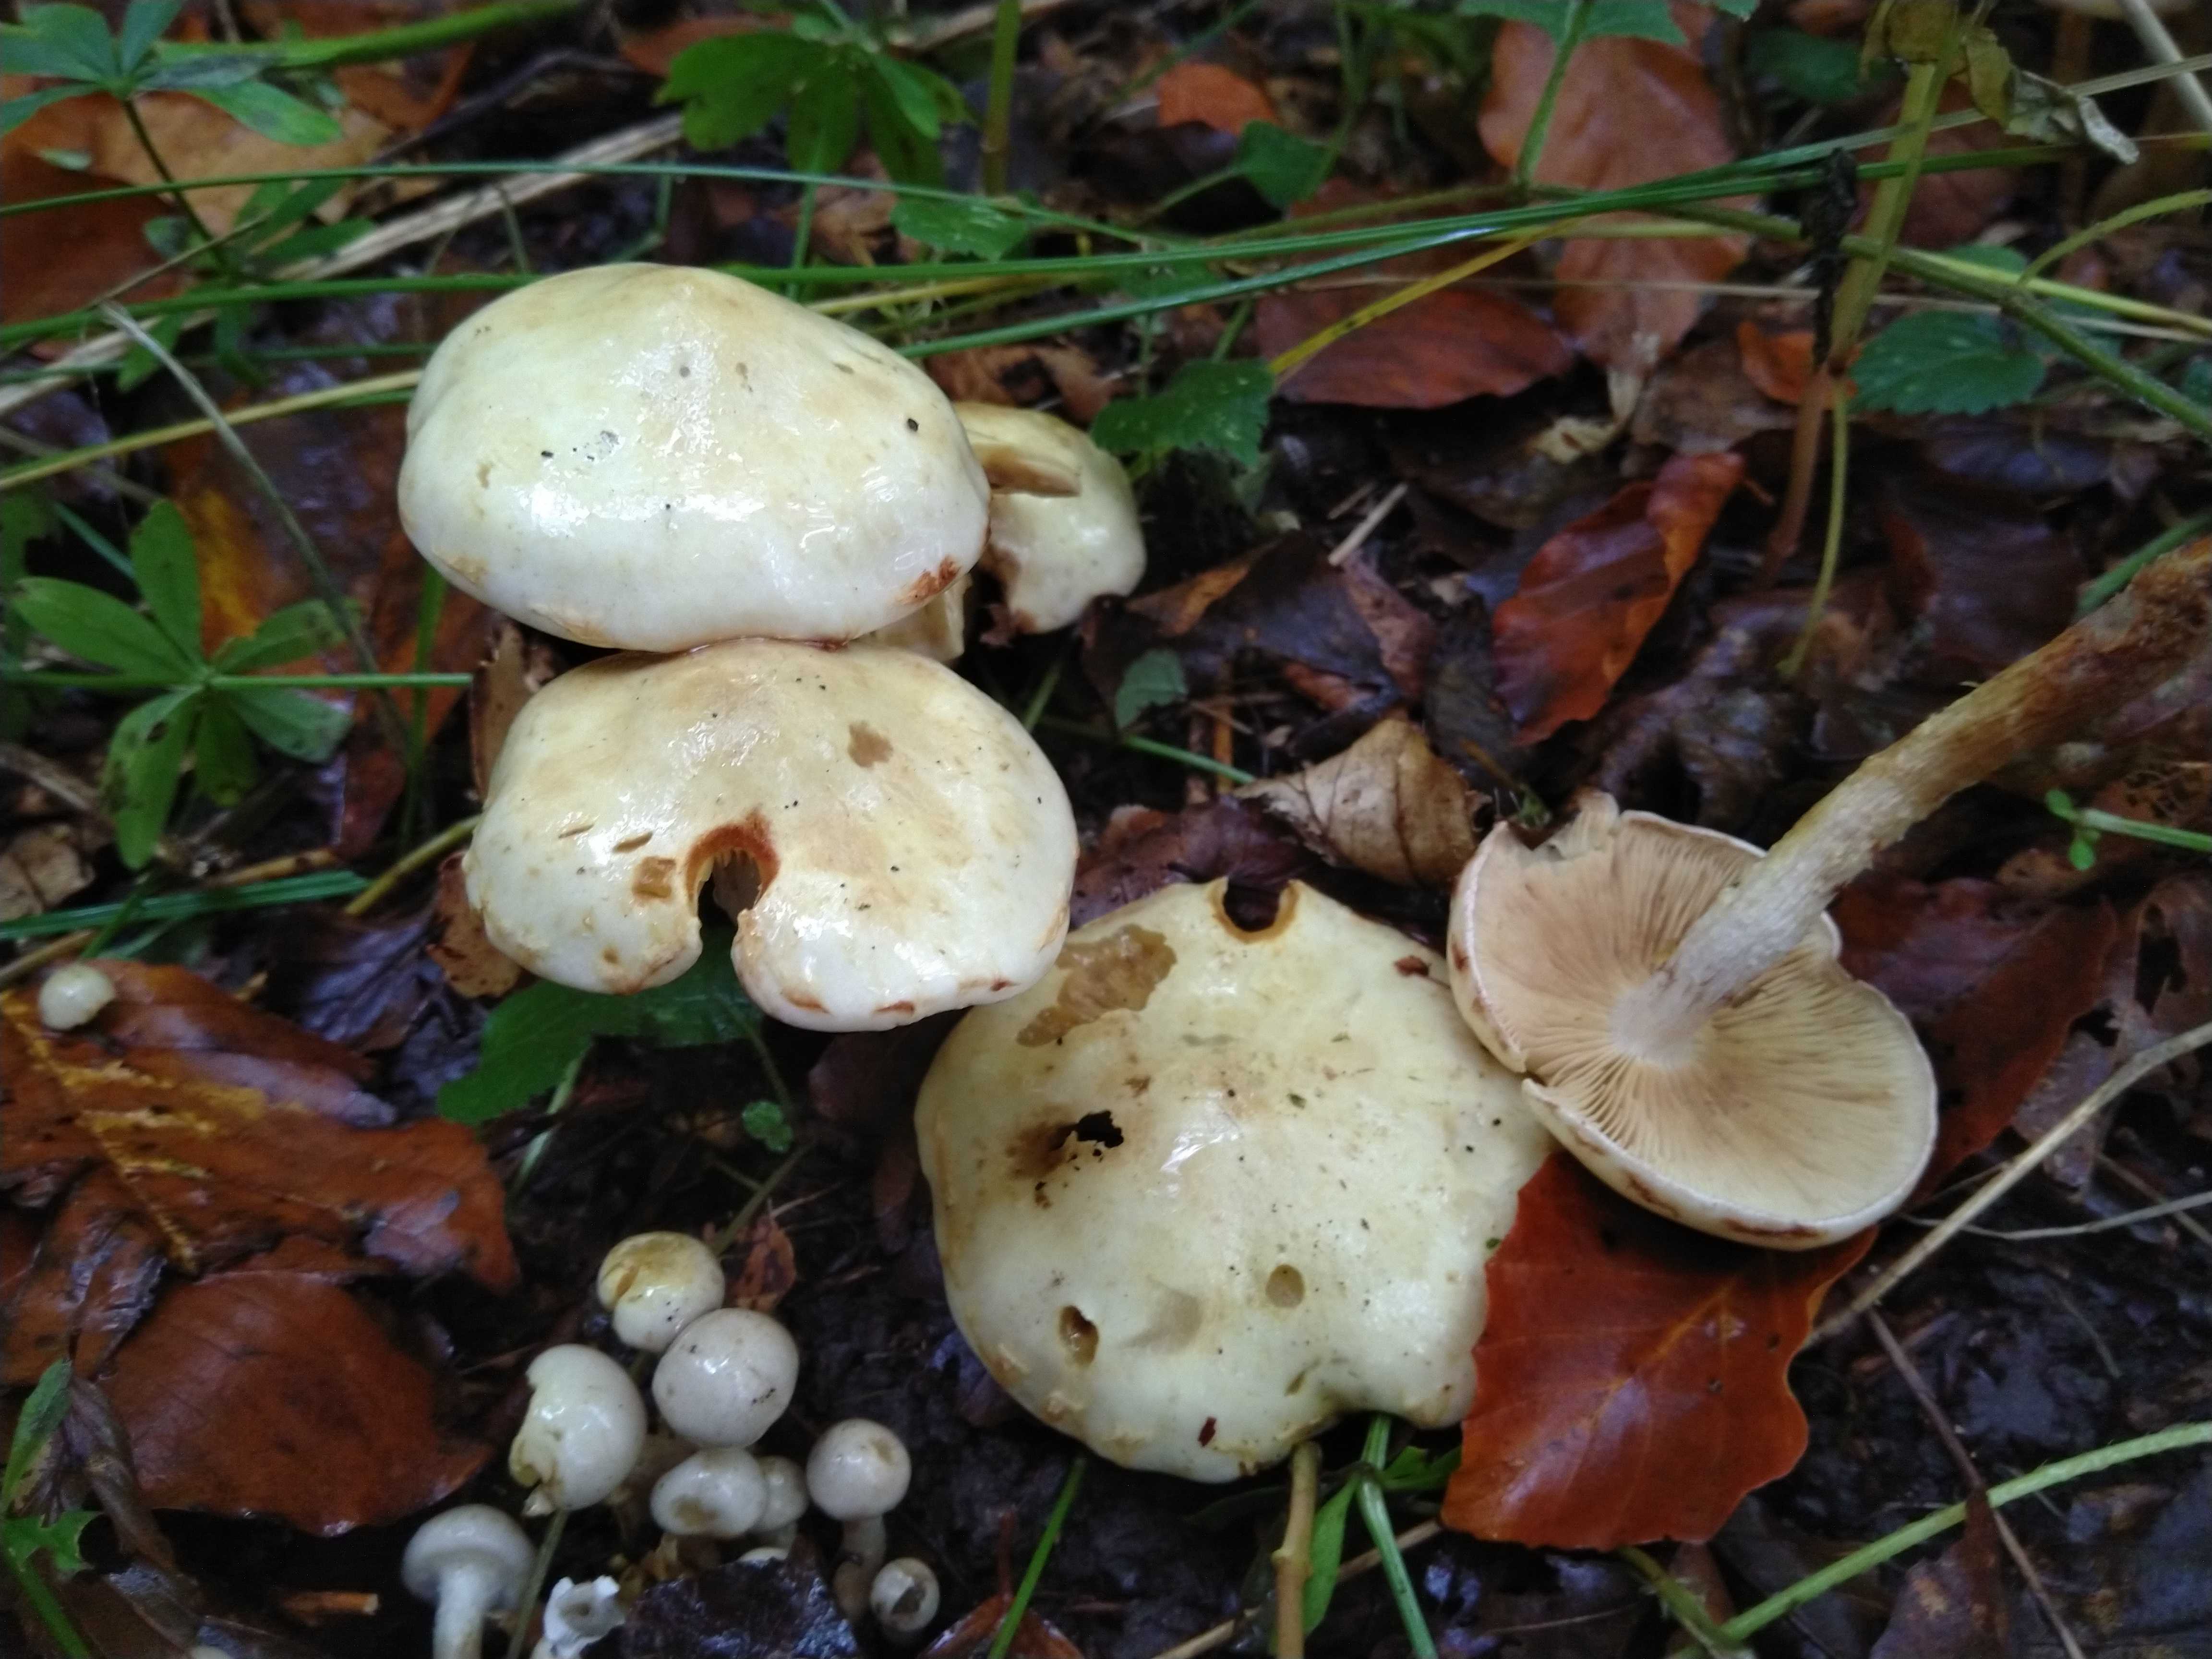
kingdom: Fungi
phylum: Basidiomycota
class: Agaricomycetes
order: Agaricales
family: Strophariaceae
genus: Pholiota
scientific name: Pholiota gummosa
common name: grøngul skælhat
